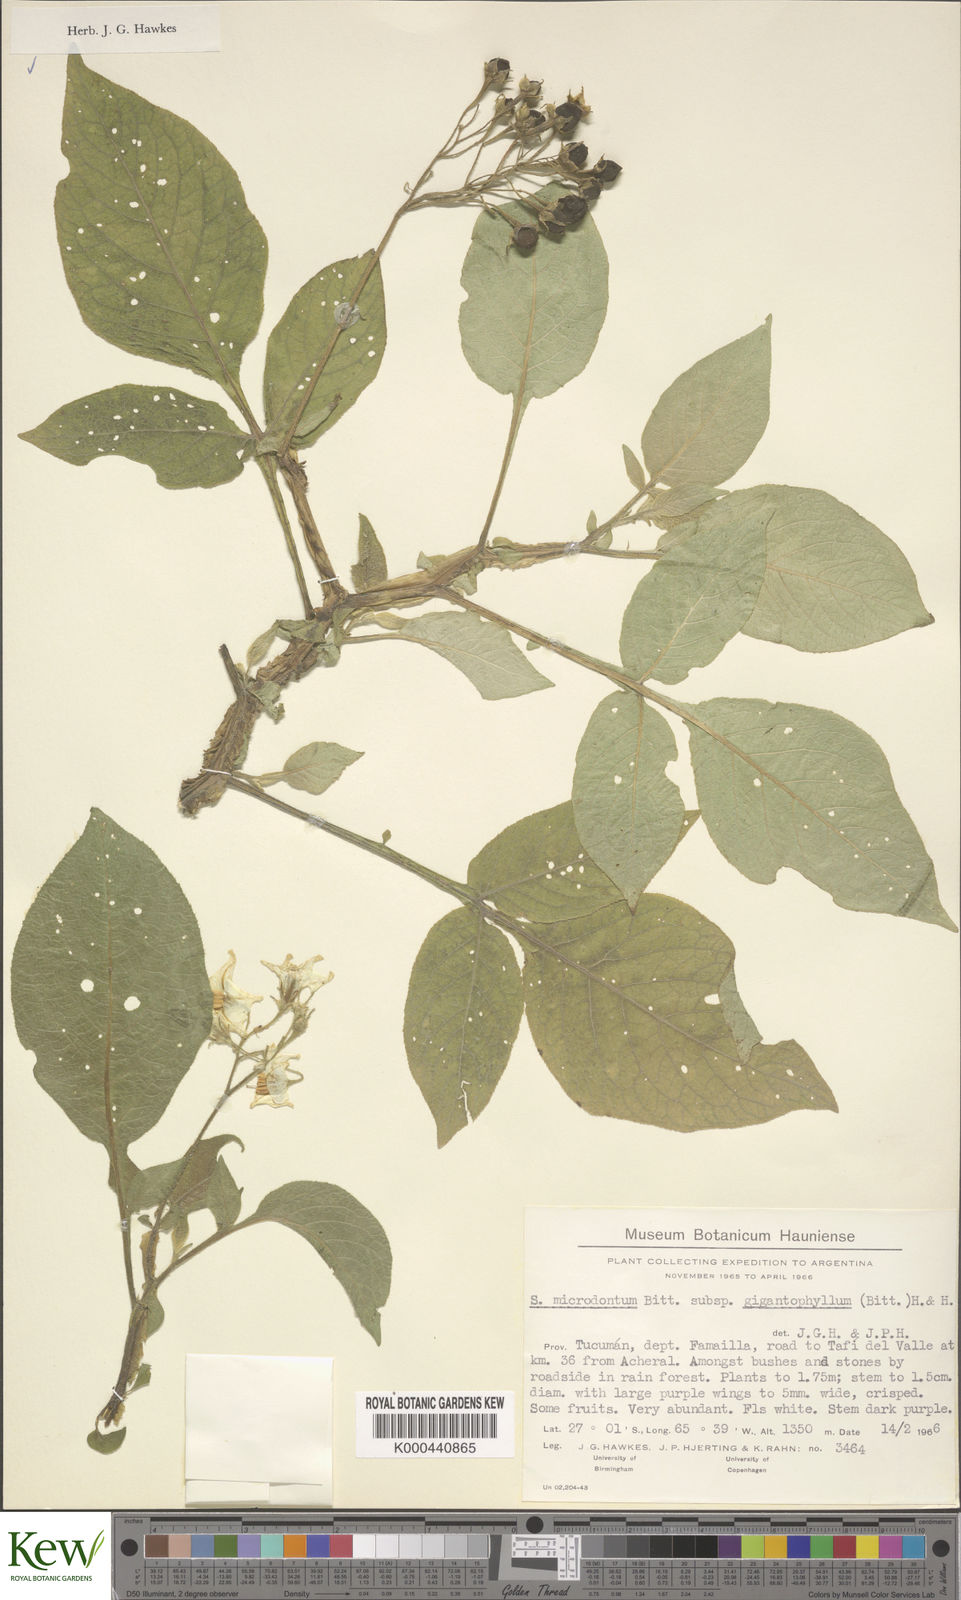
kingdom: Plantae
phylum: Tracheophyta
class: Magnoliopsida
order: Solanales
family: Solanaceae
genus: Solanum
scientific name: Solanum microdontum
